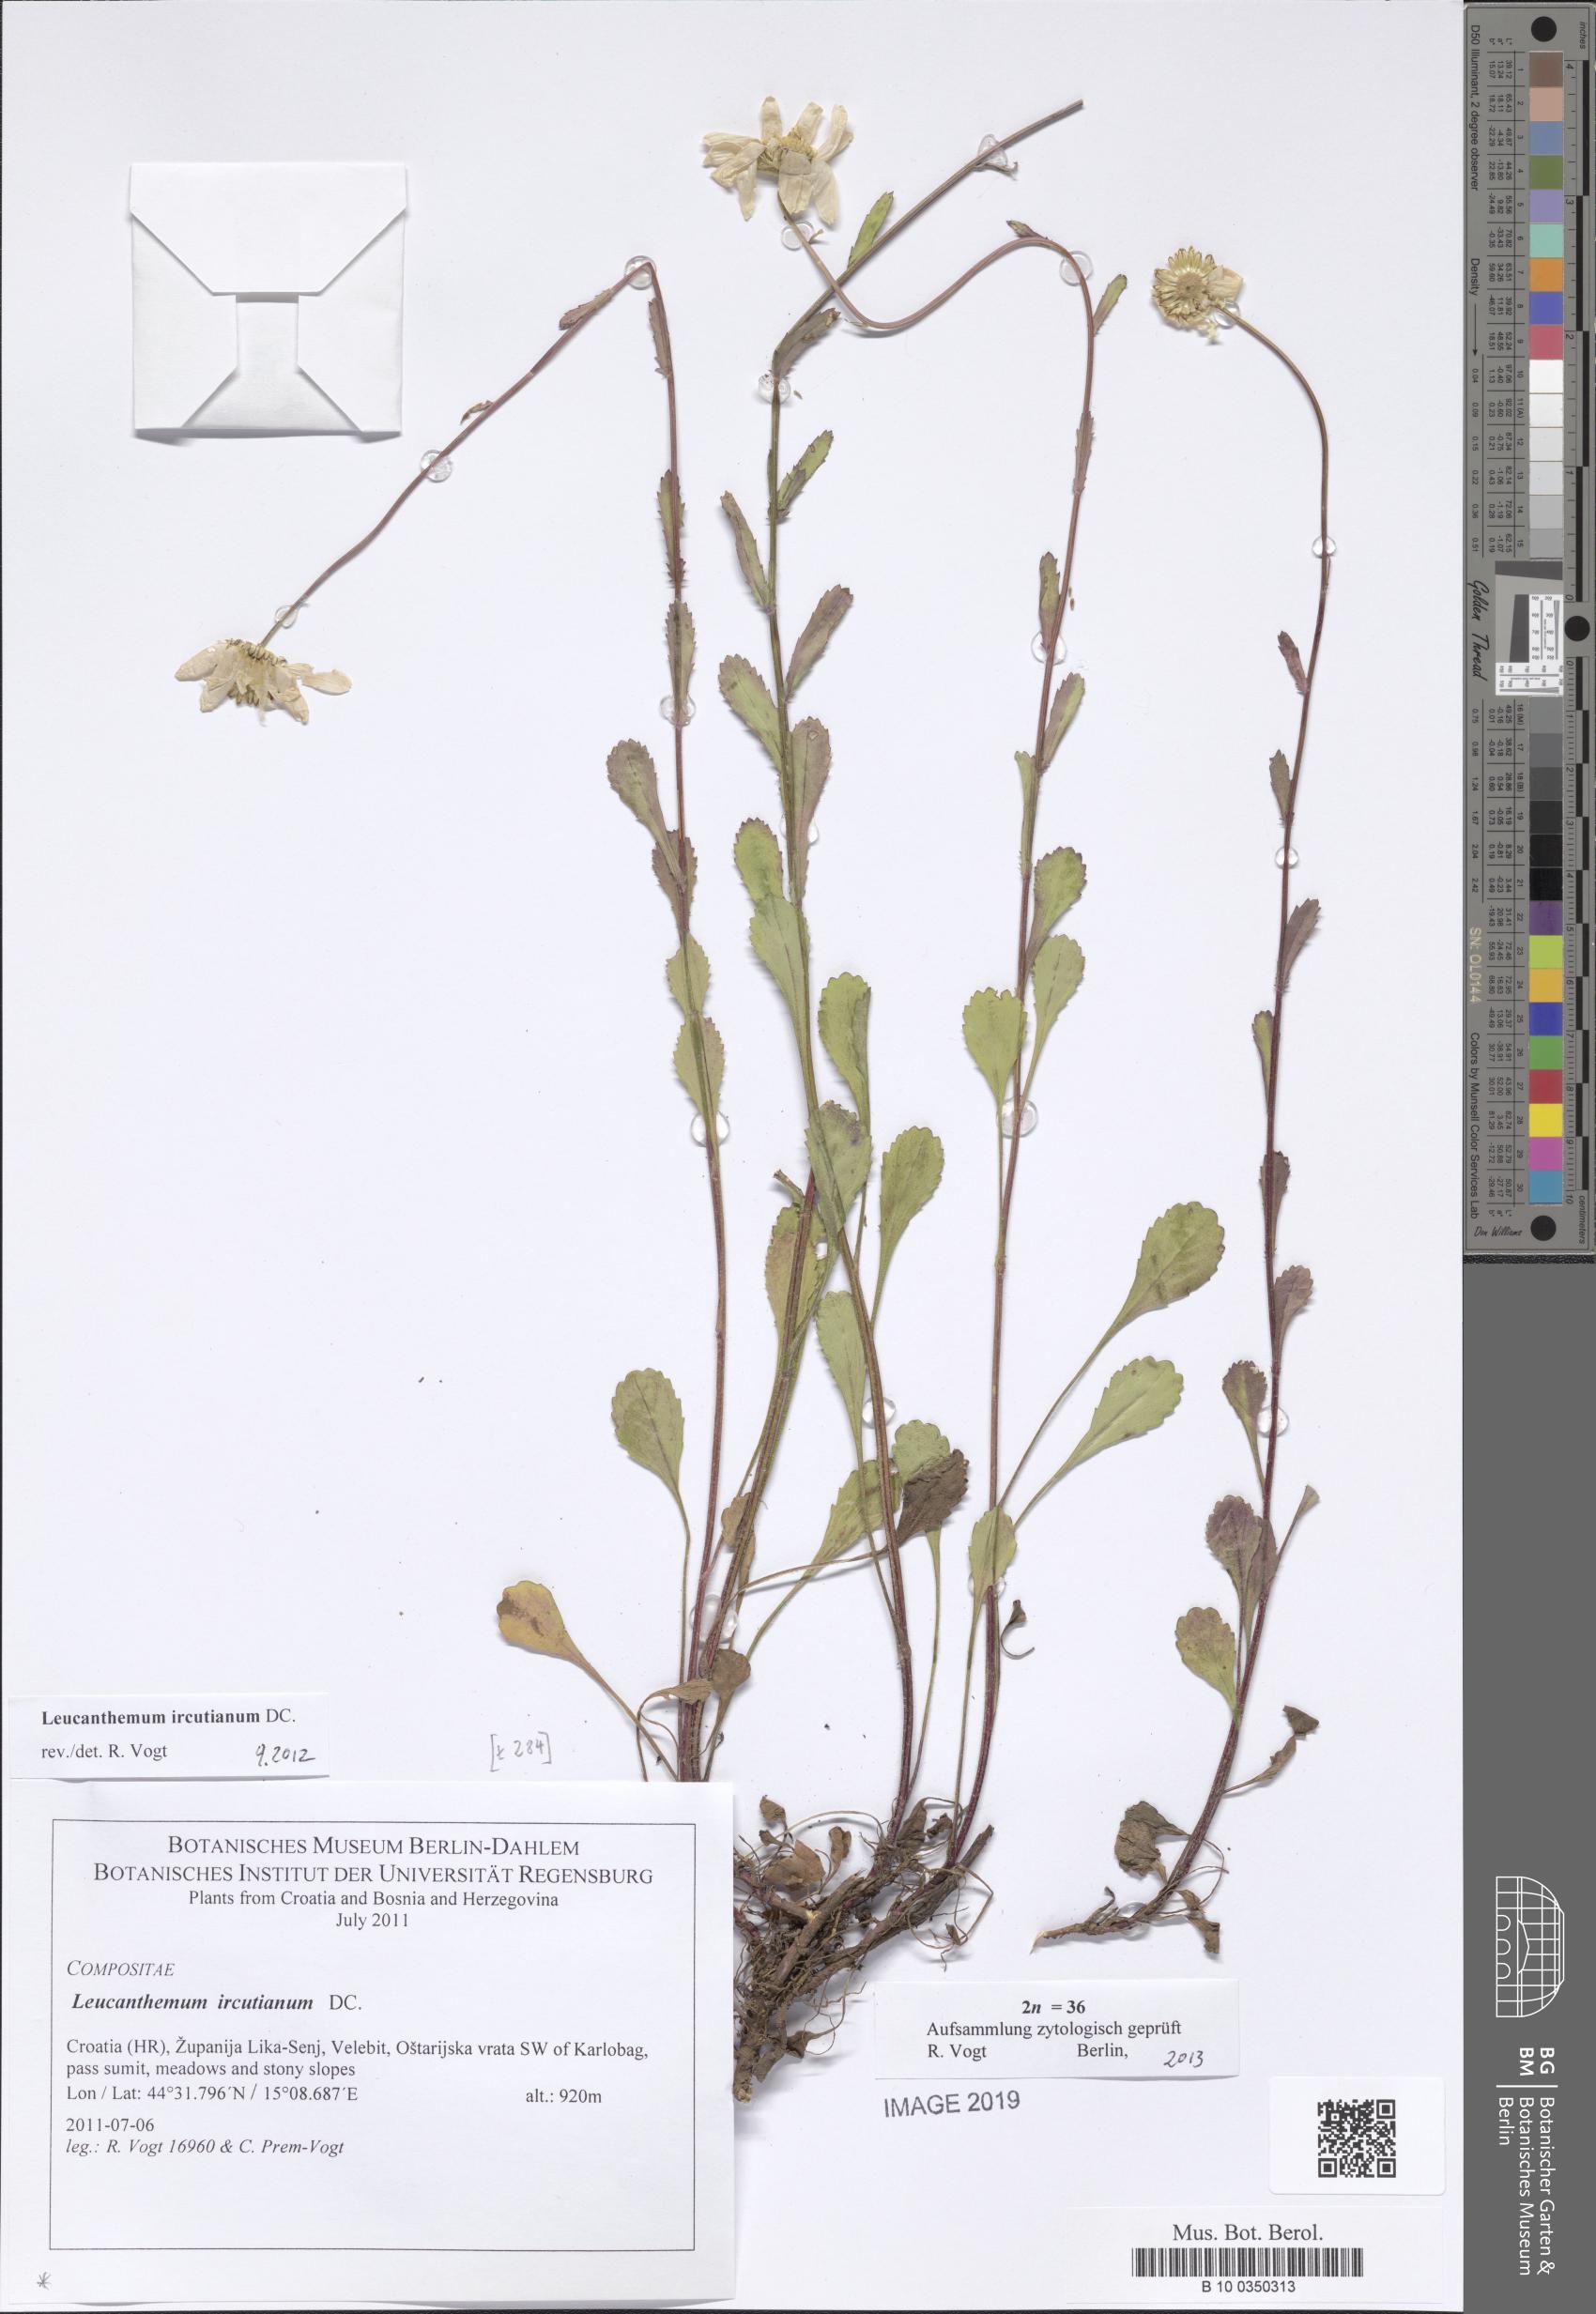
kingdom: Plantae
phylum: Tracheophyta
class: Magnoliopsida
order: Asterales
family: Asteraceae
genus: Leucanthemum
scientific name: Leucanthemum ircutianum
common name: Daisy
